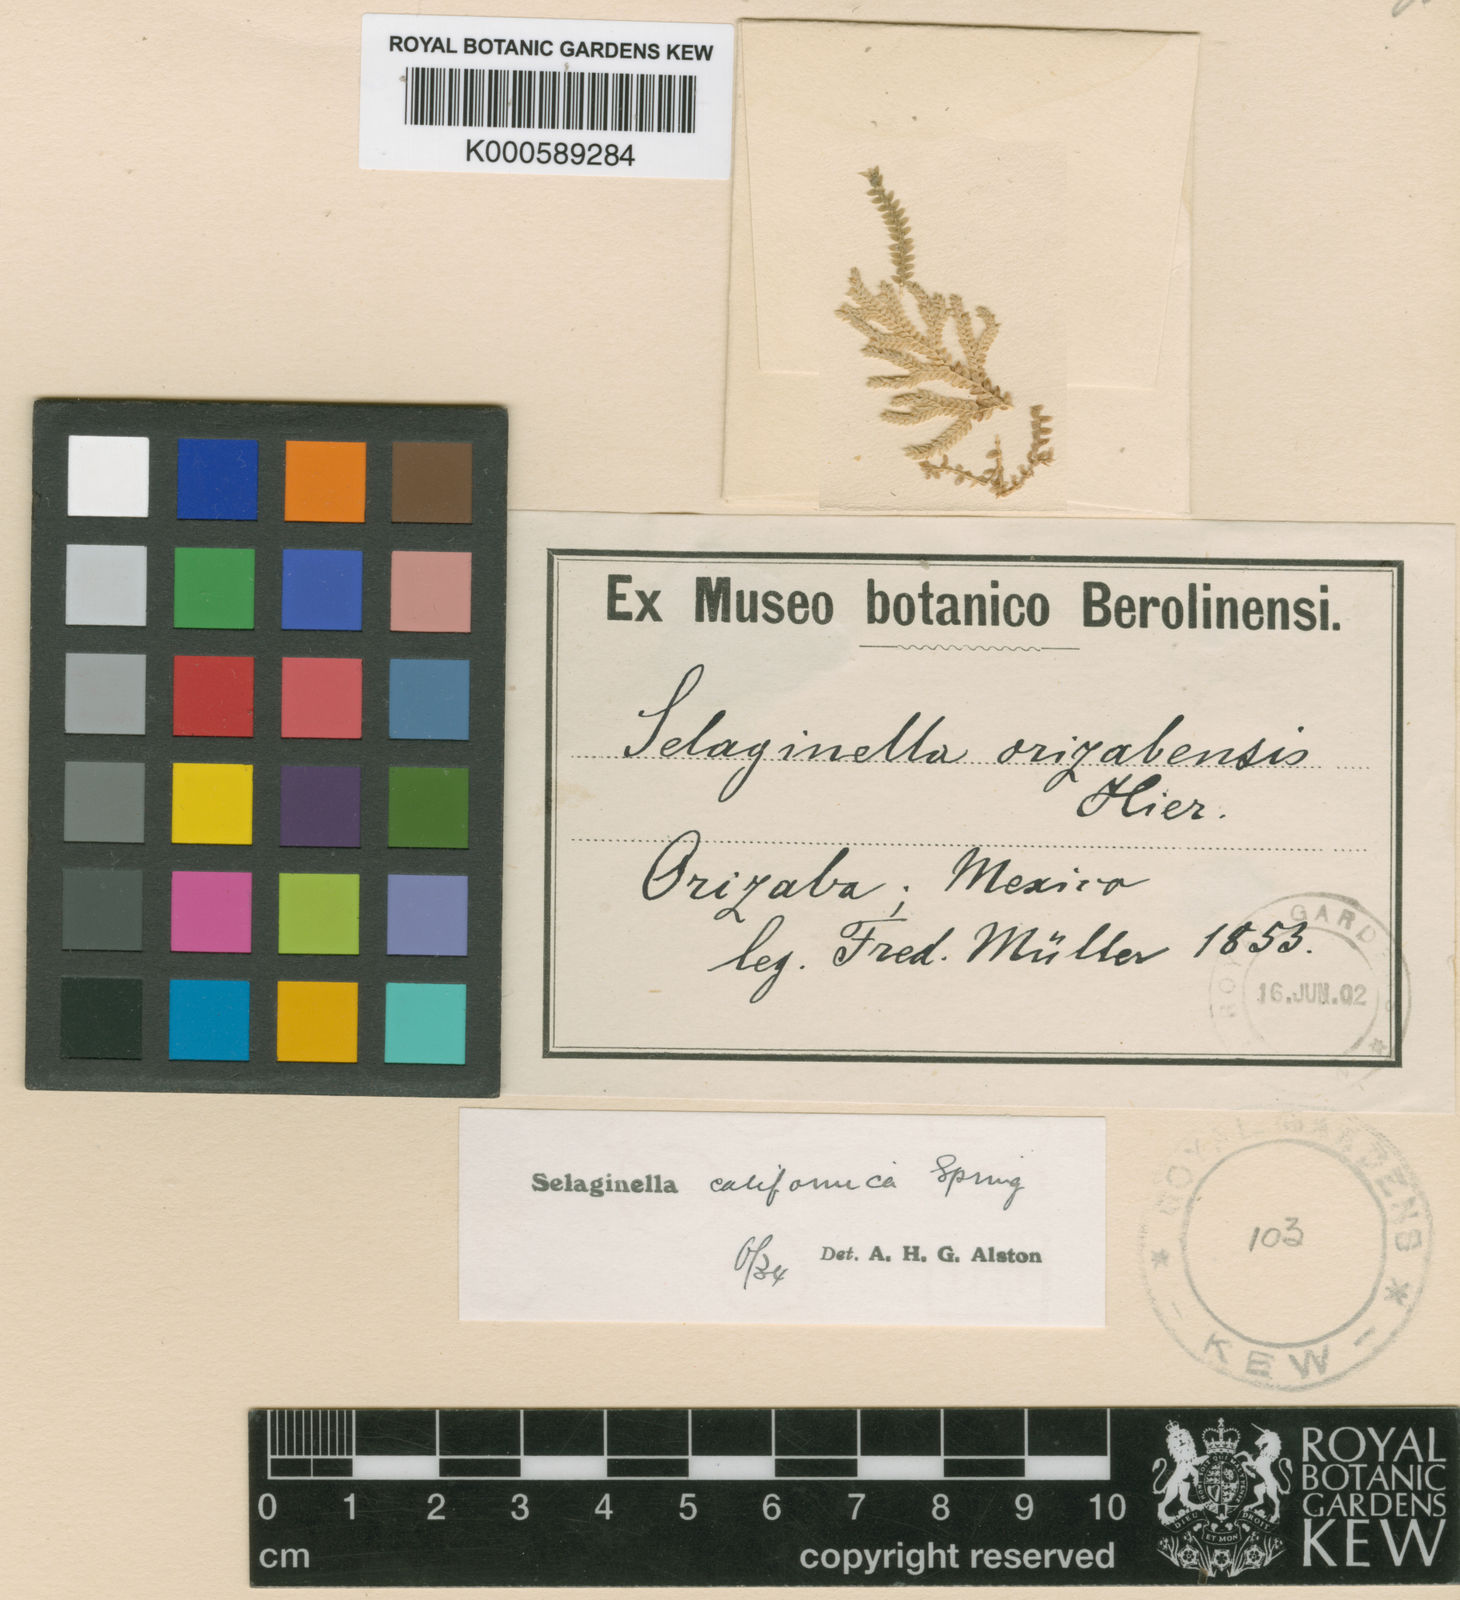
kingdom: Plantae
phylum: Tracheophyta
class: Lycopodiopsida
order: Selaginellales
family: Selaginellaceae
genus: Selaginella
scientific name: Selaginella orizabensis
